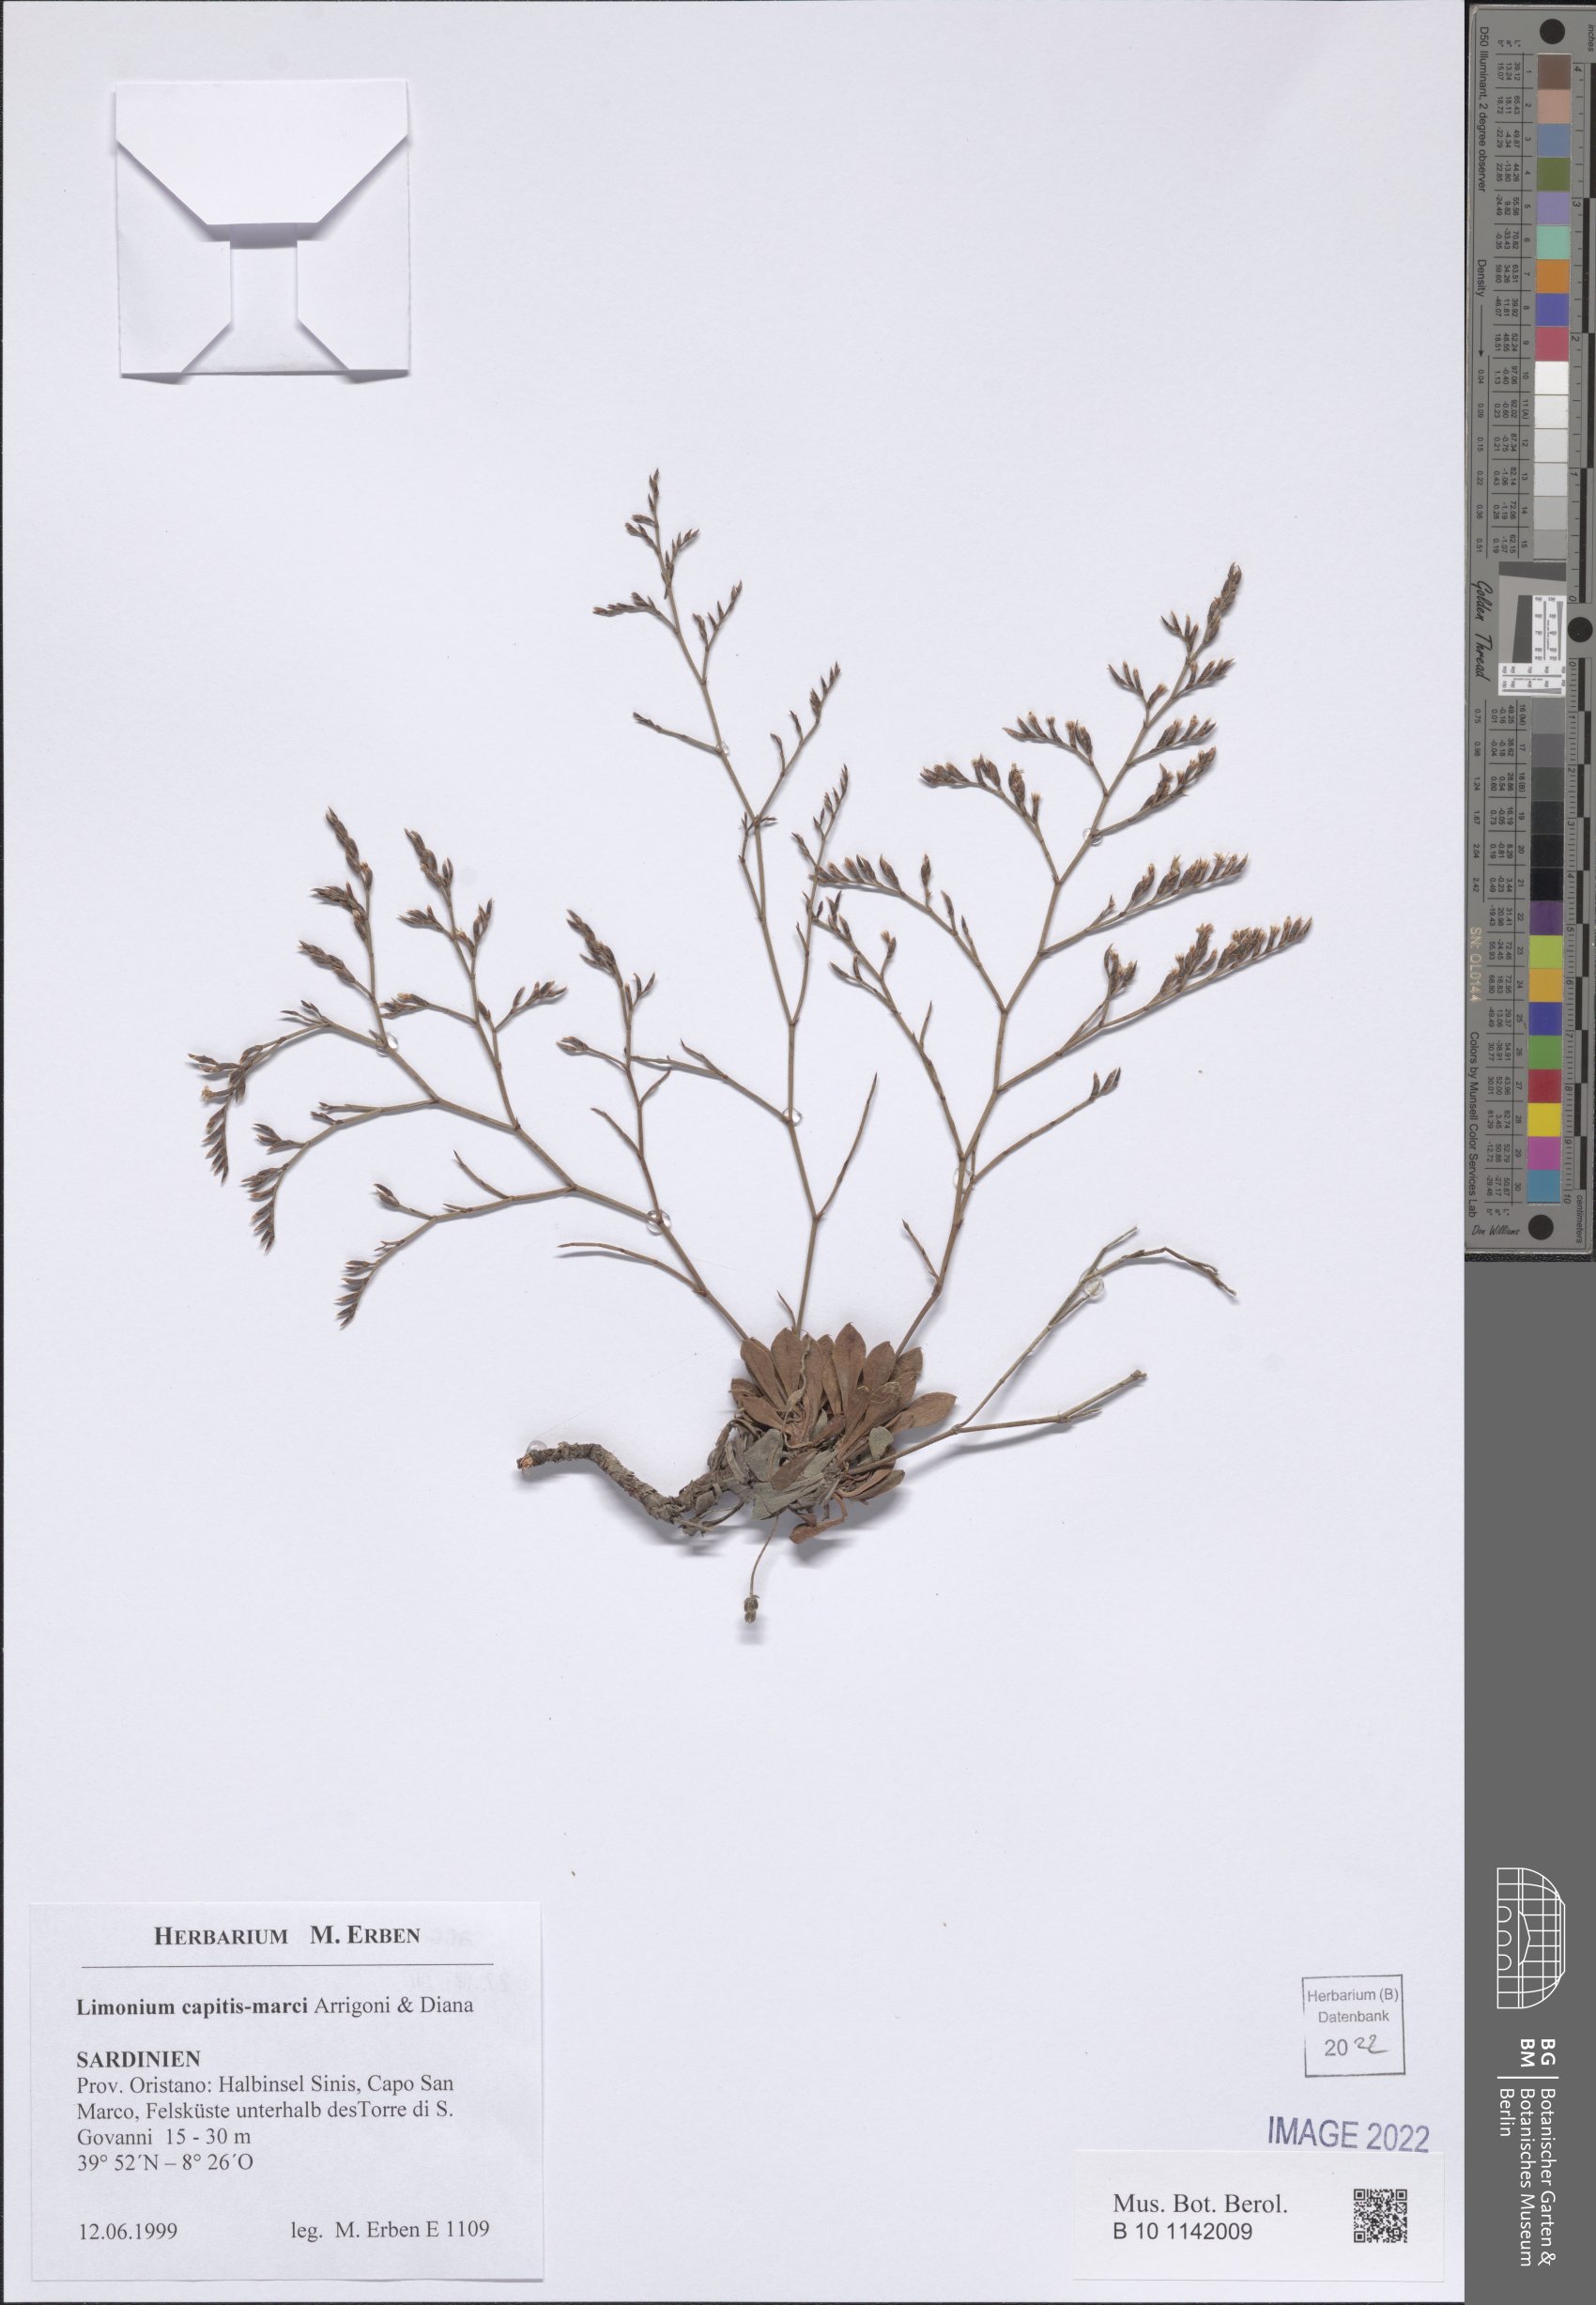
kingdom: Plantae
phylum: Tracheophyta
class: Magnoliopsida
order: Caryophyllales
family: Plumbaginaceae
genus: Limonium
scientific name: Limonium capitis-marci
